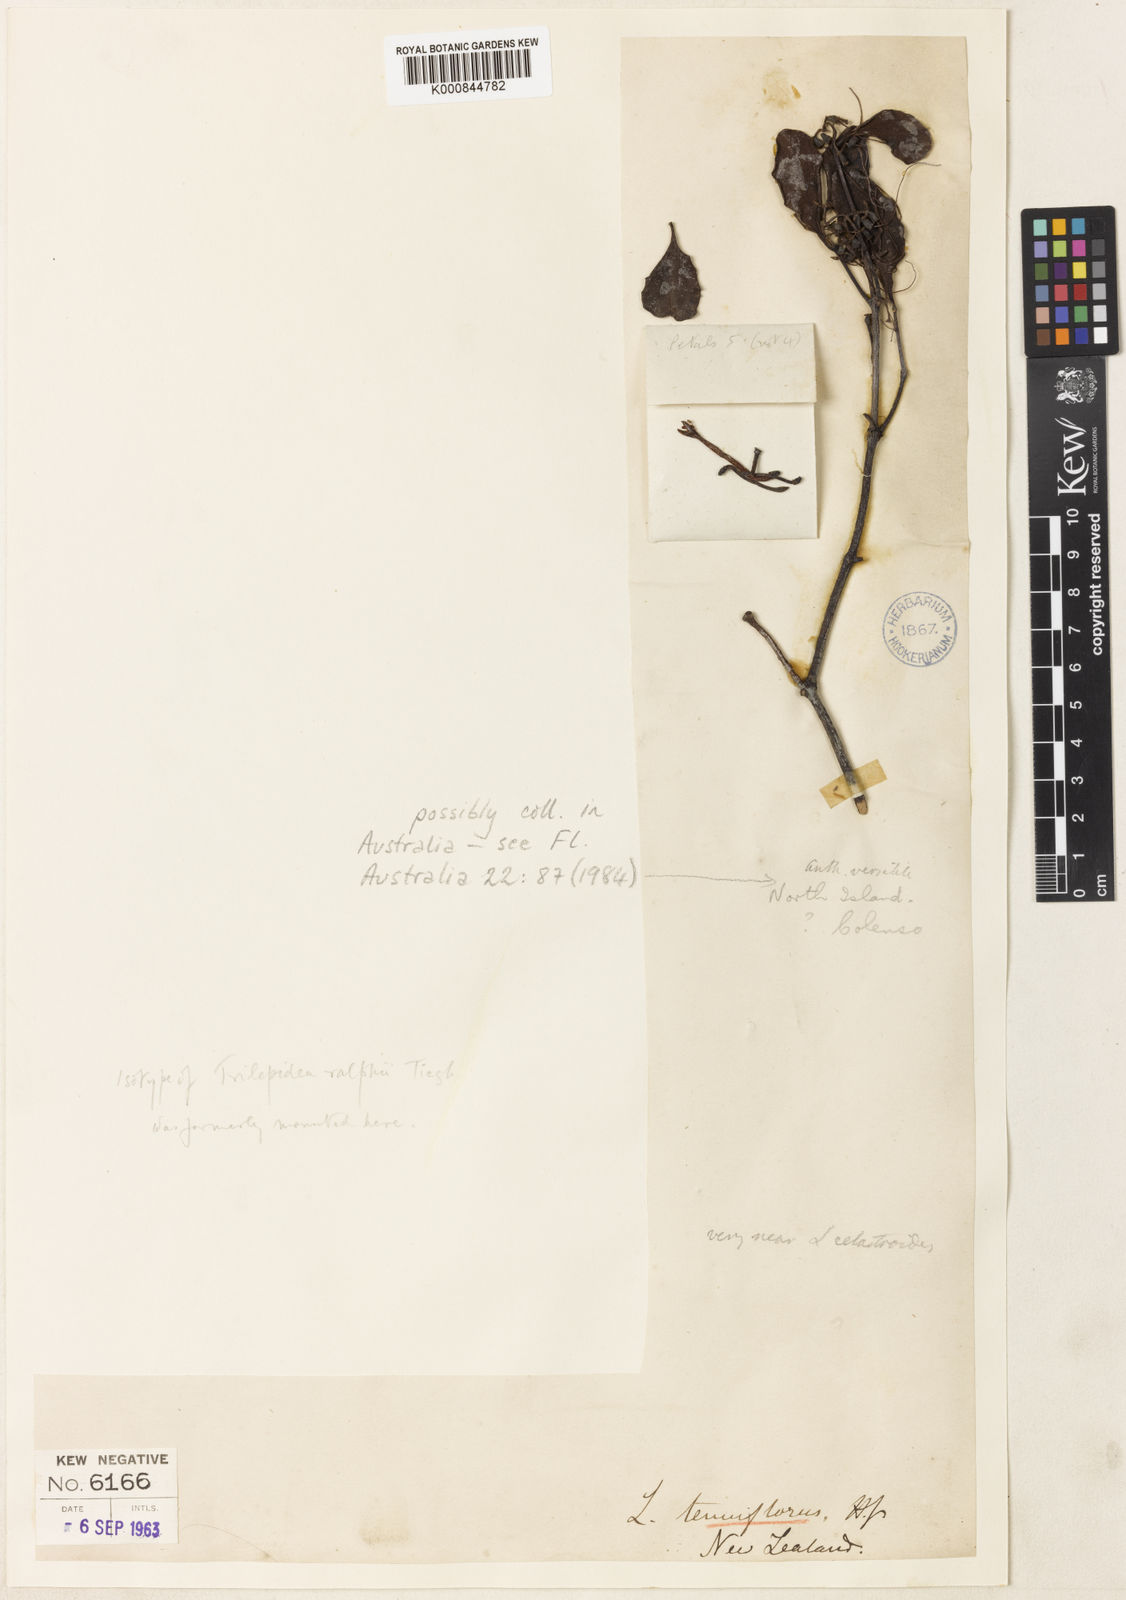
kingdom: Plantae
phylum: Tracheophyta
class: Magnoliopsida
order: Santalales
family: Loranthaceae
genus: Muellerina
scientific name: Muellerina celastroides
